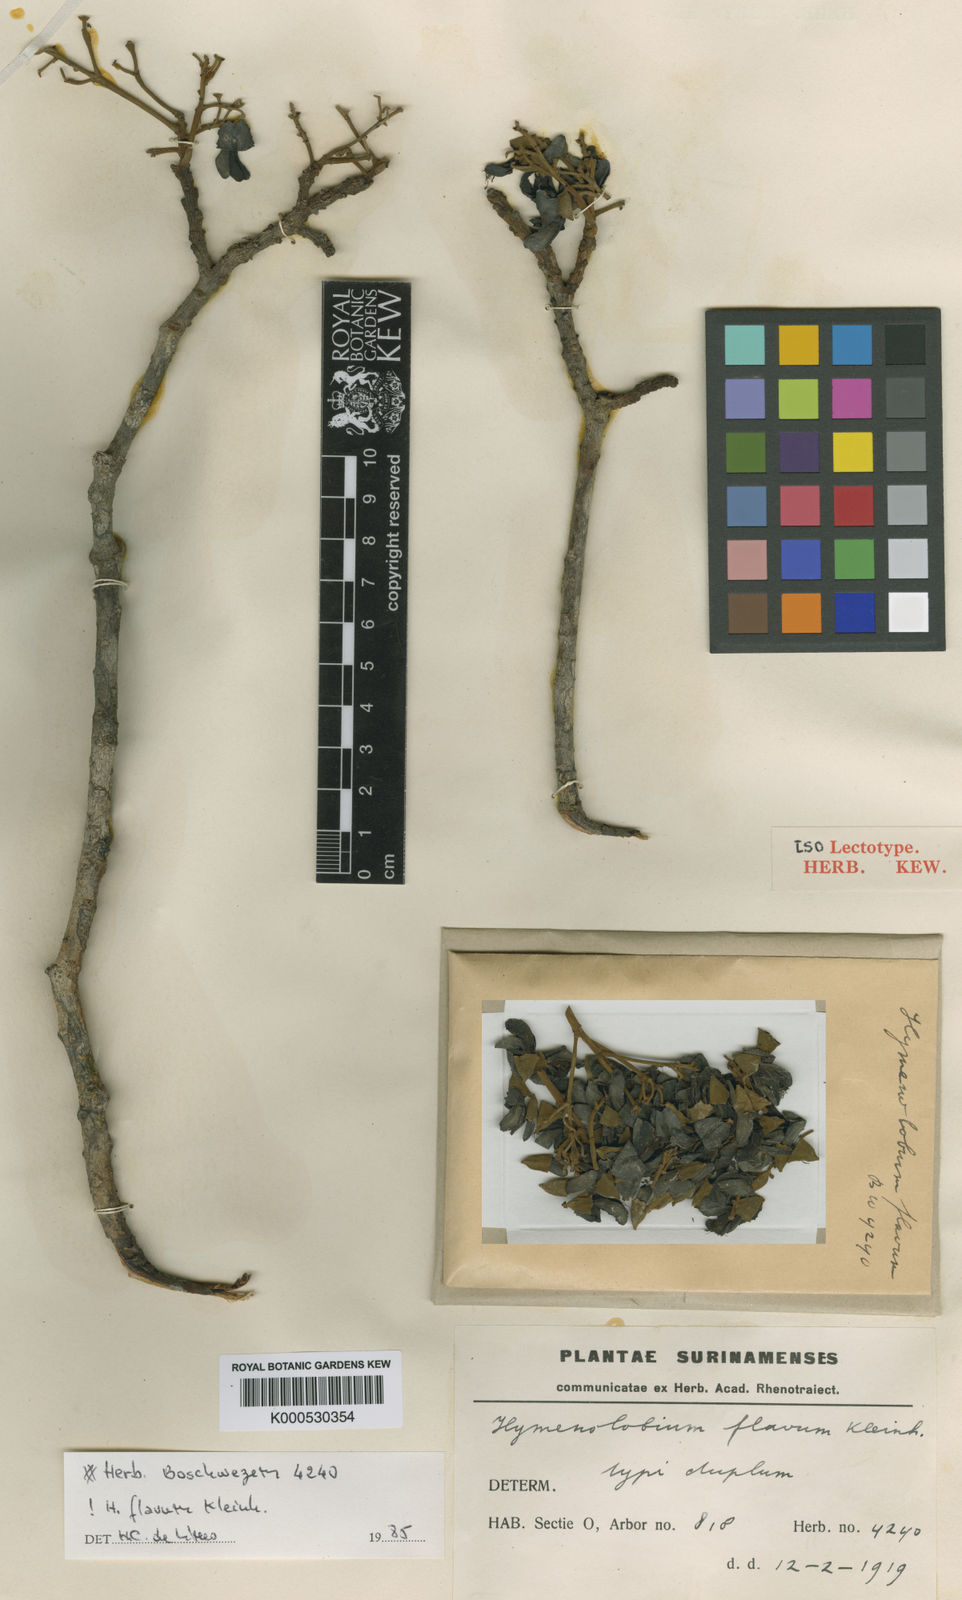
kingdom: Plantae
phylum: Tracheophyta
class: Magnoliopsida
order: Fabales
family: Fabaceae
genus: Hymenolobium
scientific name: Hymenolobium flavum
